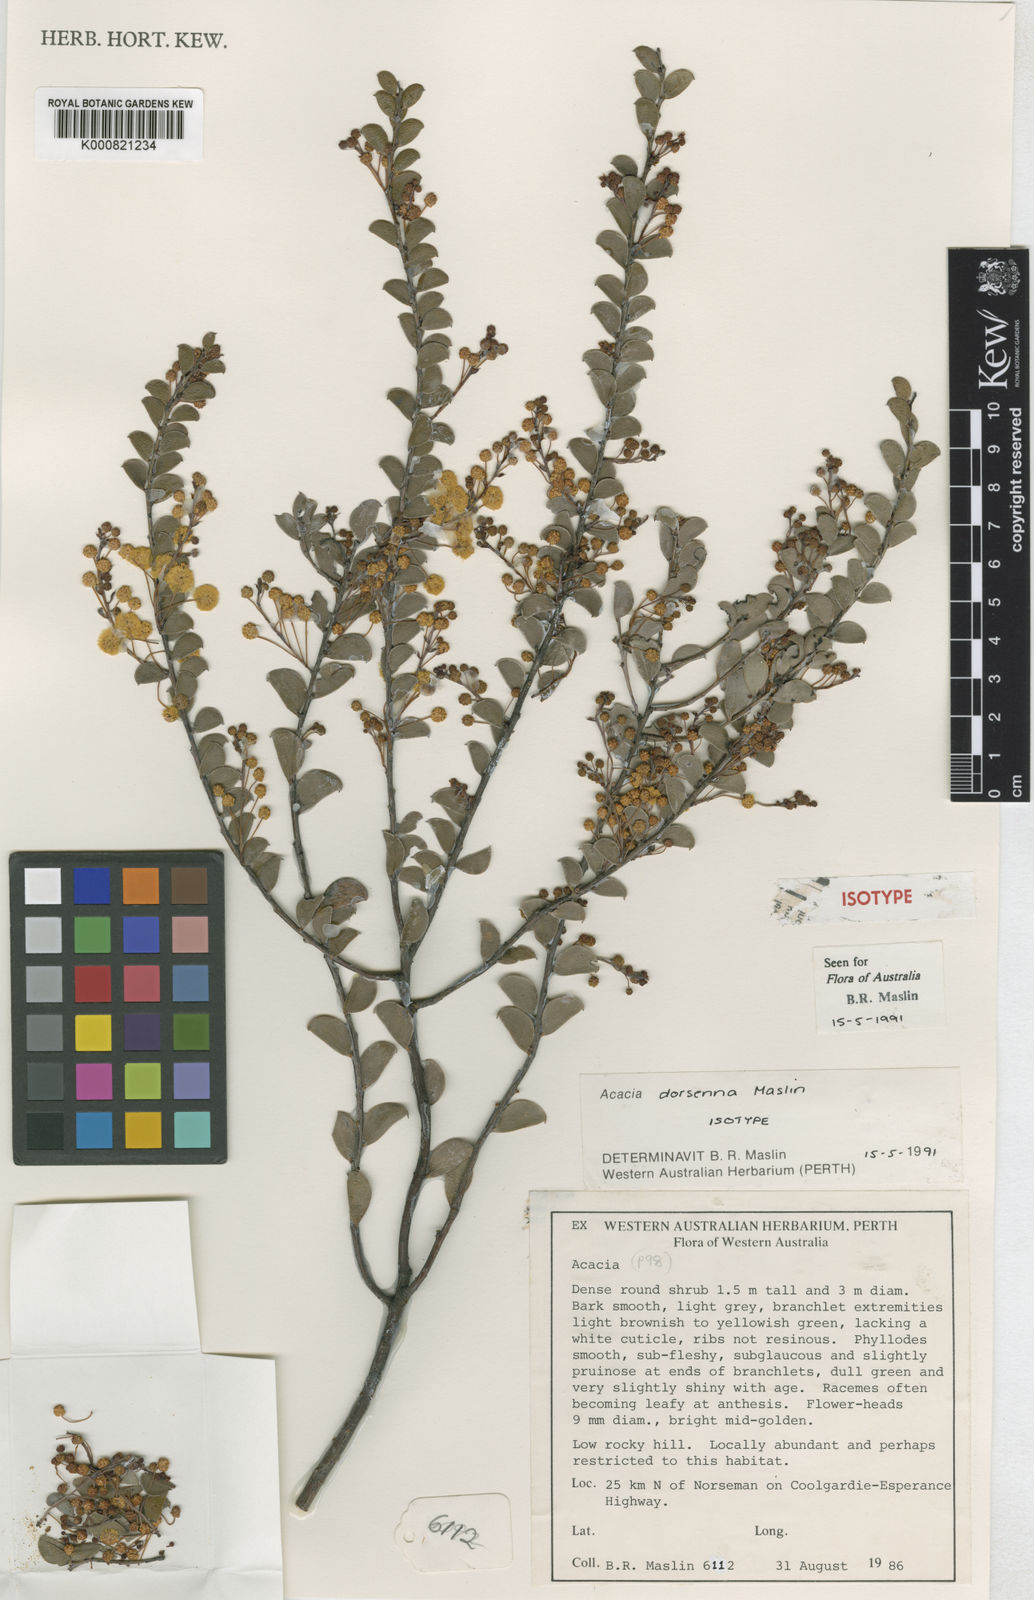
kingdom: Plantae
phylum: Tracheophyta
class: Magnoliopsida
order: Fabales
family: Fabaceae
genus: Acacia
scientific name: Acacia dorsenna
